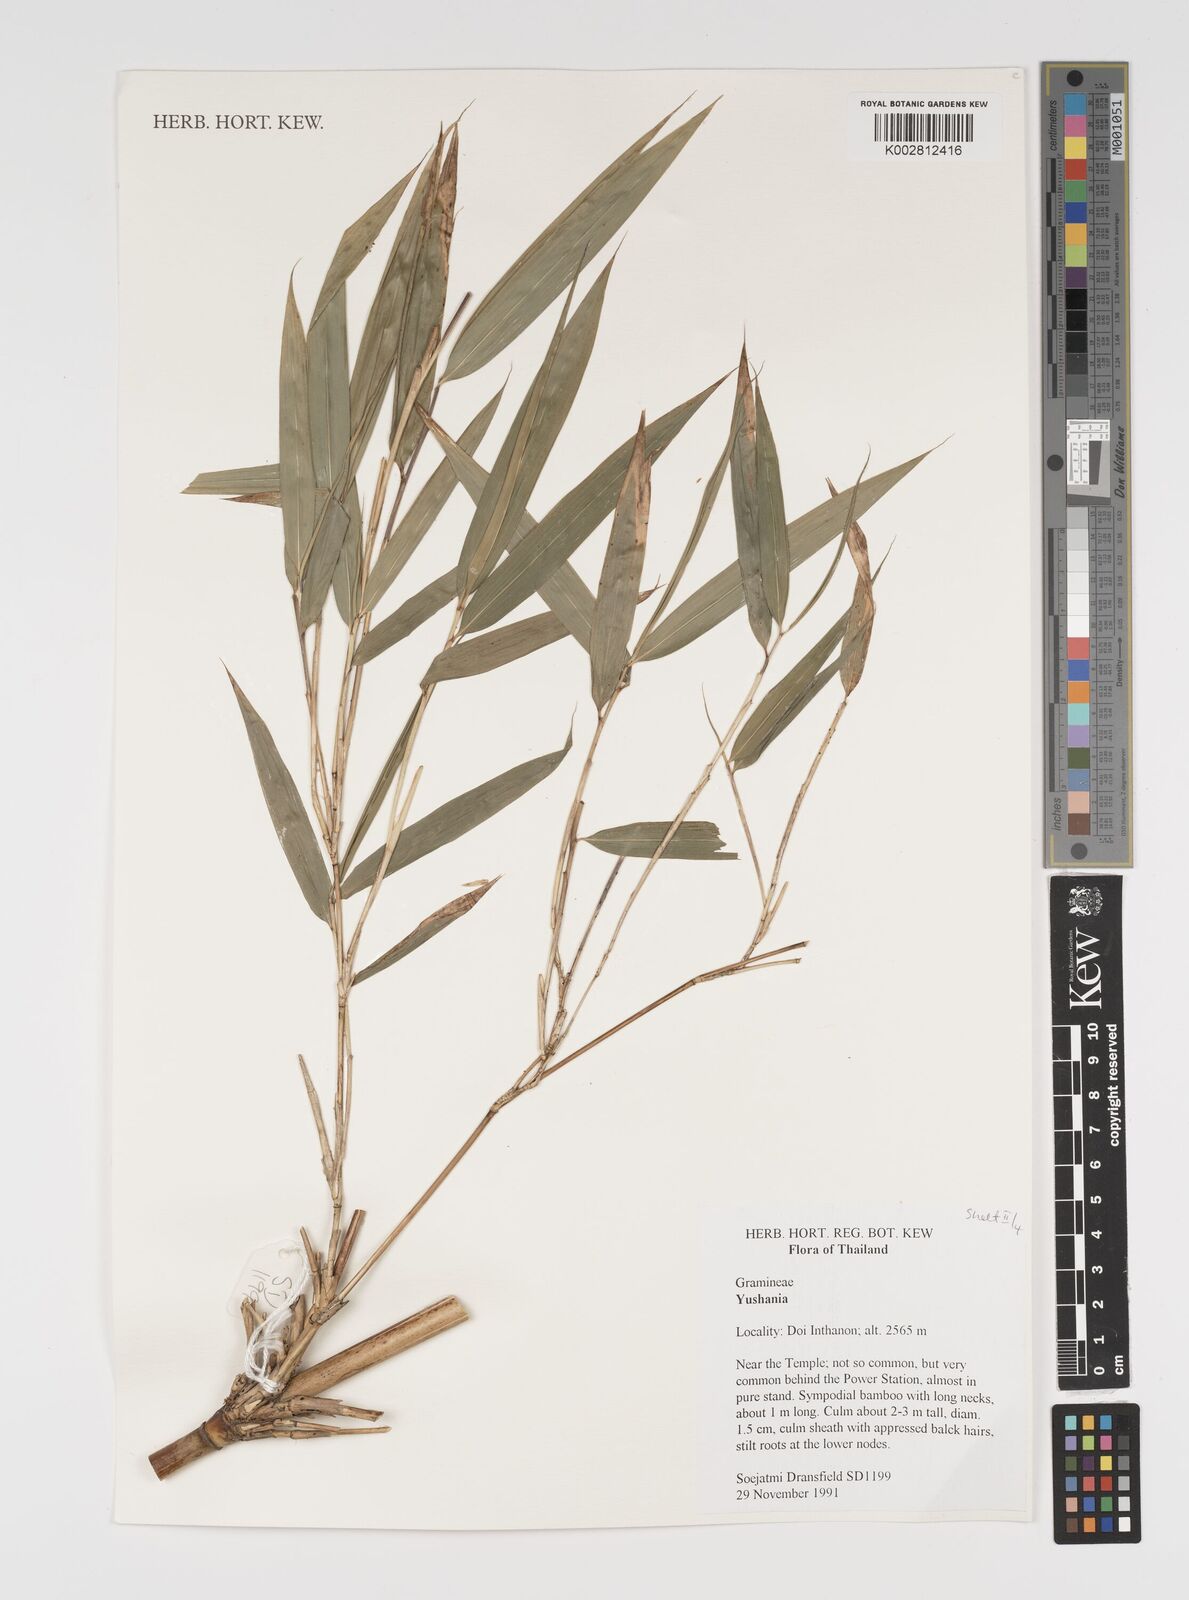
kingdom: Plantae
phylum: Tracheophyta
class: Liliopsida
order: Poales
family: Poaceae
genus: Yushania
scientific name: Yushania
